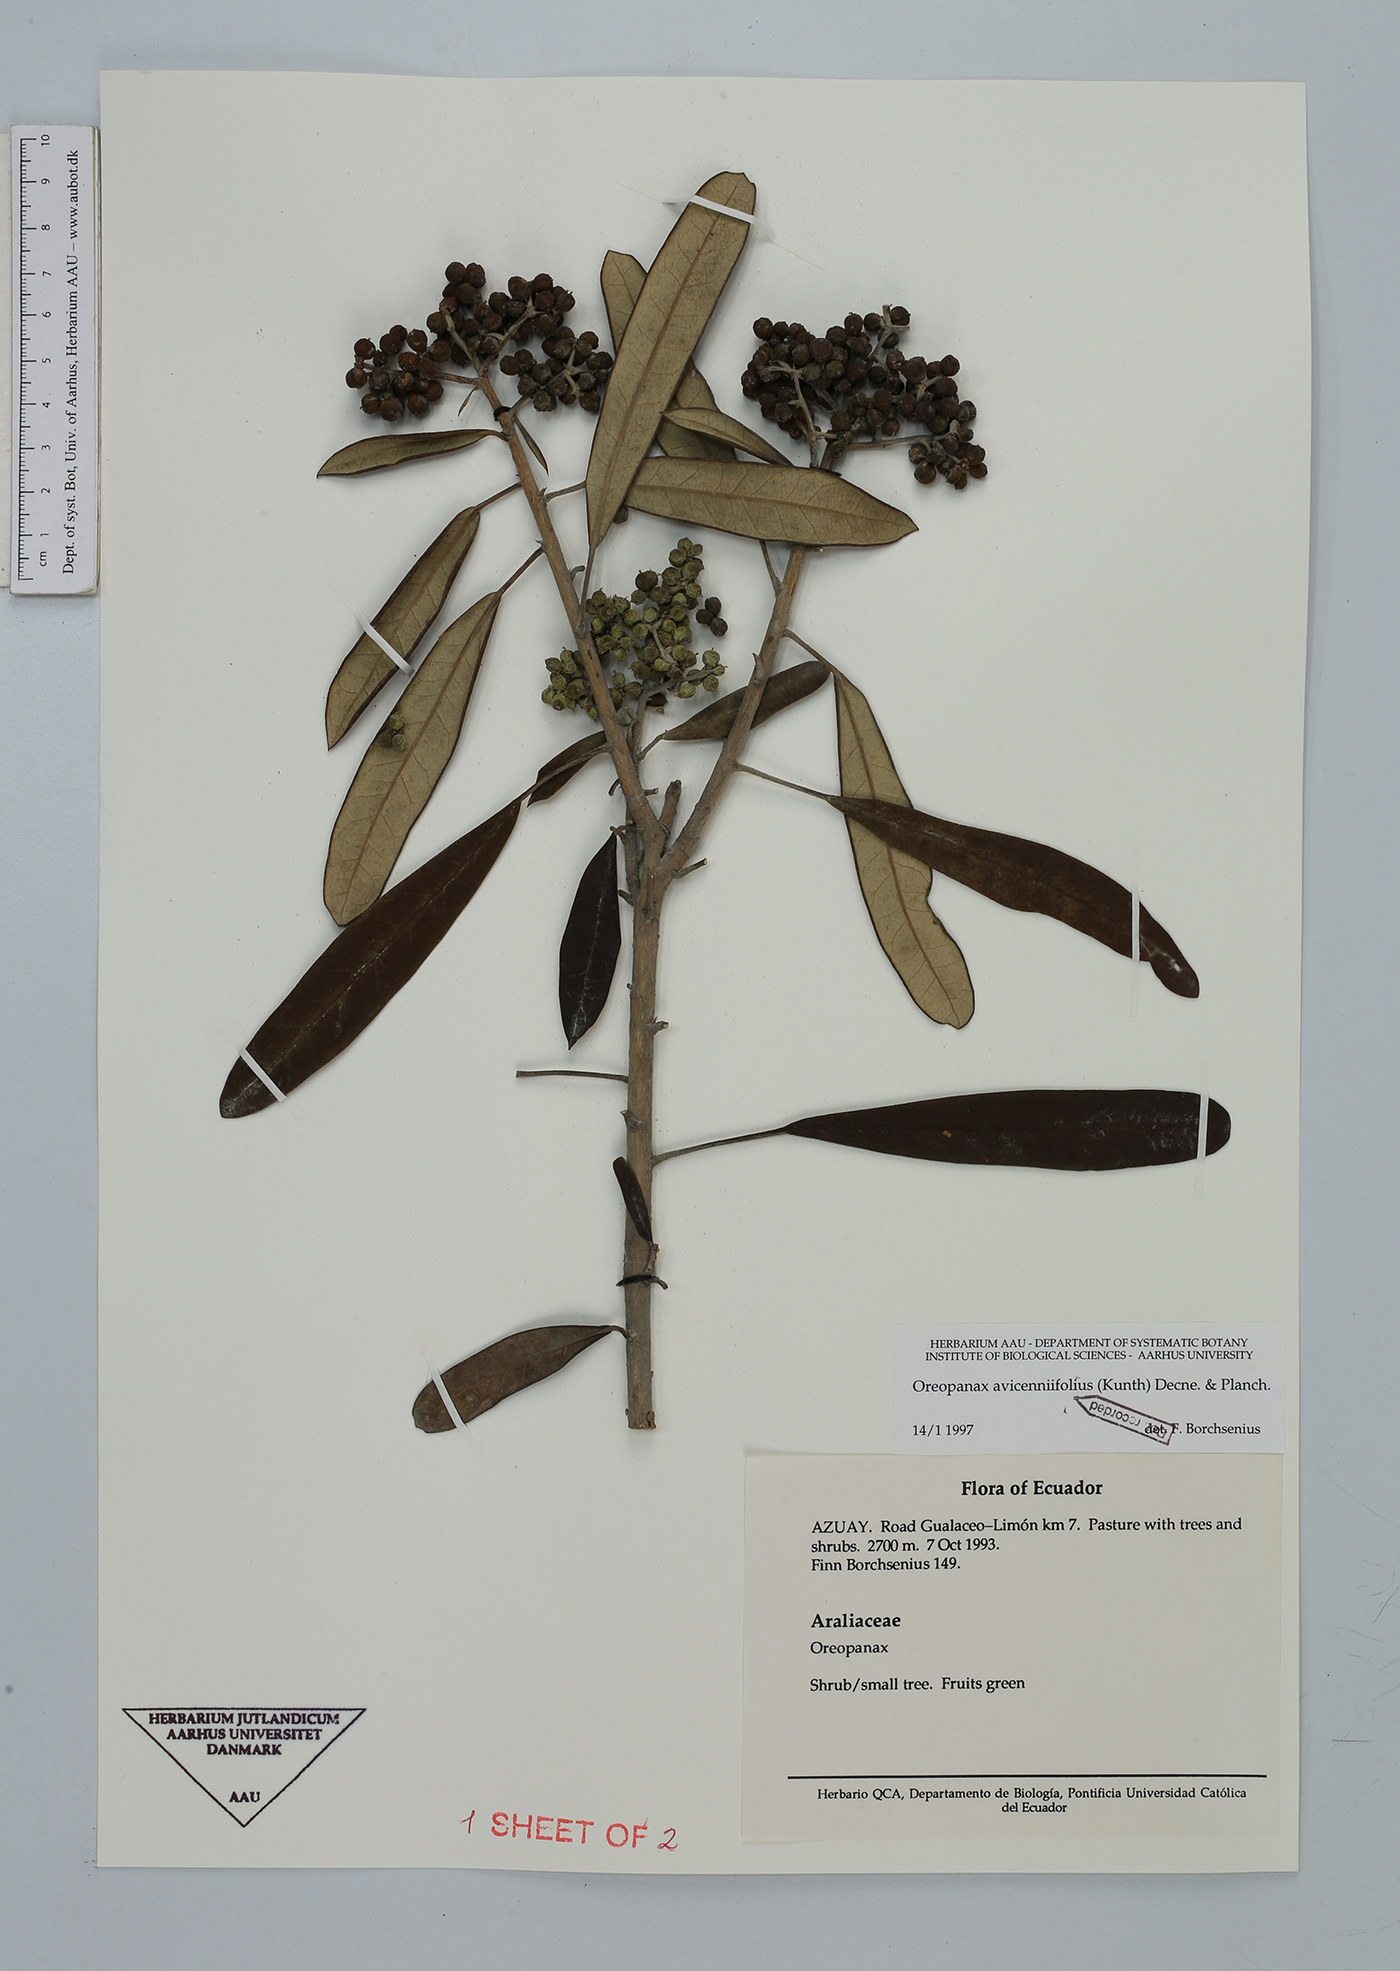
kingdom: Plantae
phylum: Tracheophyta
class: Magnoliopsida
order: Apiales
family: Araliaceae
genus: Oreopanax
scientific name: Oreopanax avicenniifolius
